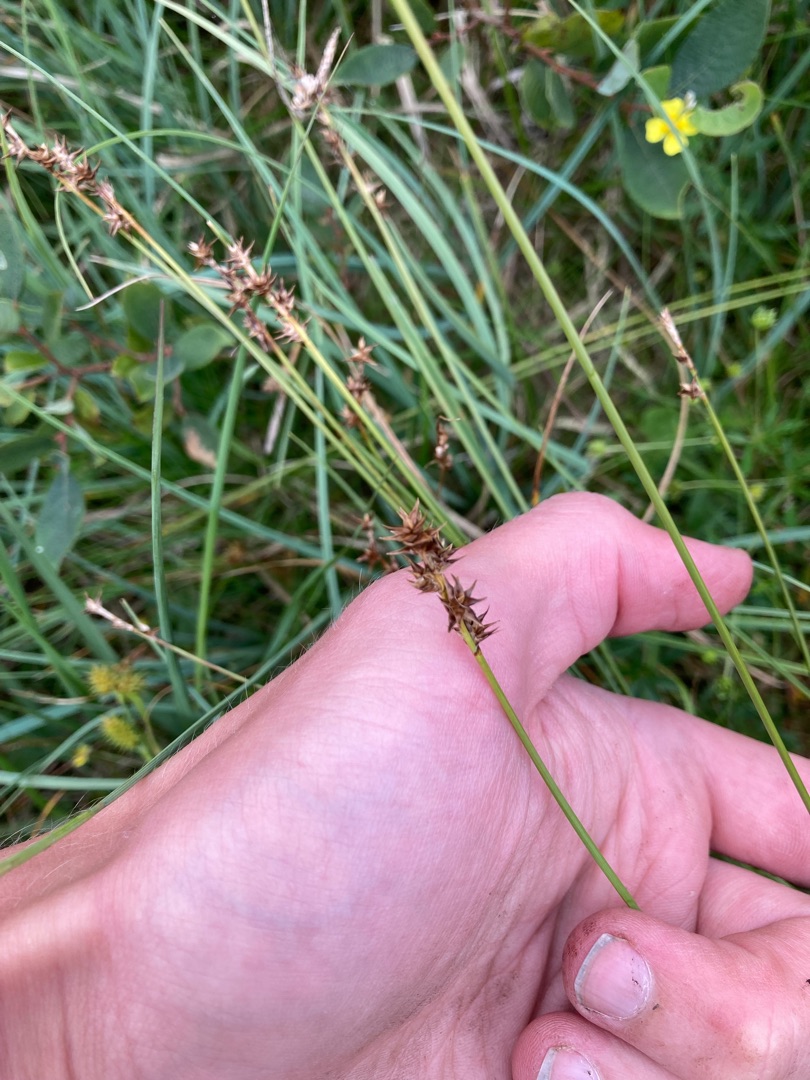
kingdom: Plantae
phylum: Tracheophyta
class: Liliopsida
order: Poales
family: Cyperaceae
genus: Carex
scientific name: Carex echinata
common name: Stjerne-star
